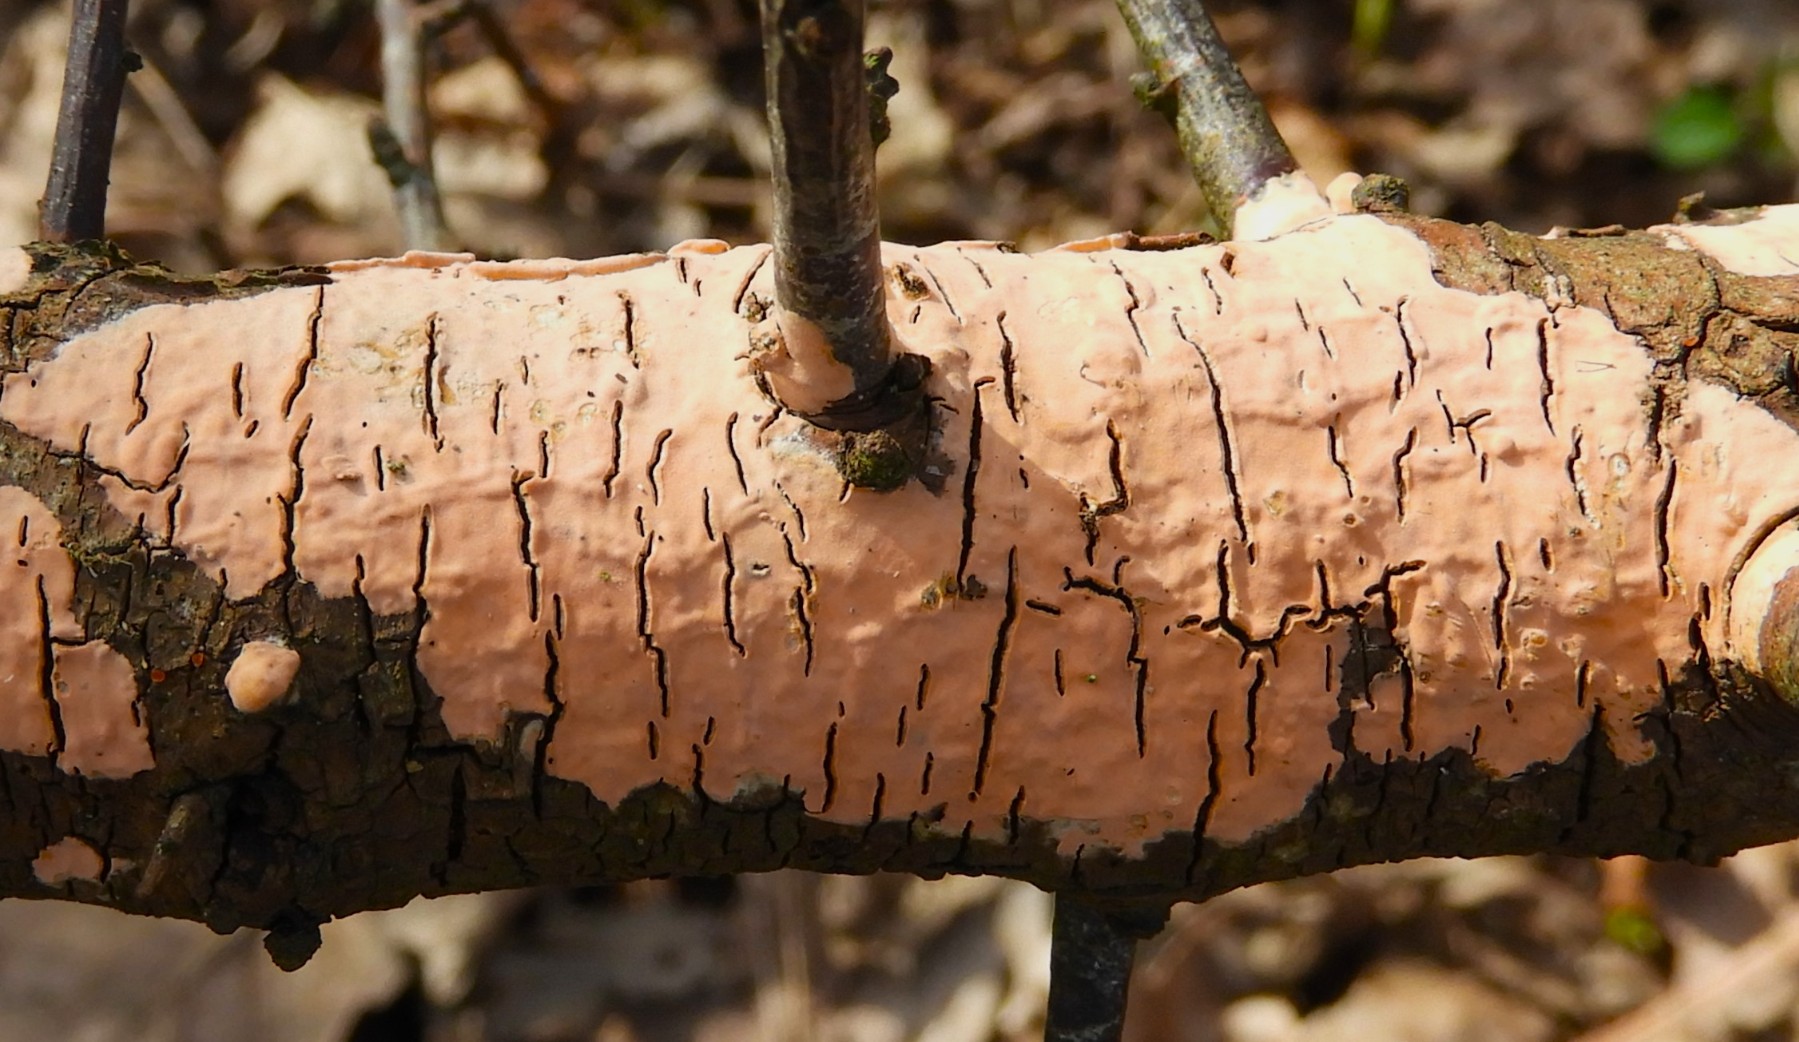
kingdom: Fungi
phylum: Basidiomycota
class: Agaricomycetes
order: Russulales
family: Peniophoraceae
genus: Peniophora
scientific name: Peniophora incarnata
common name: laksefarvet voksskind
